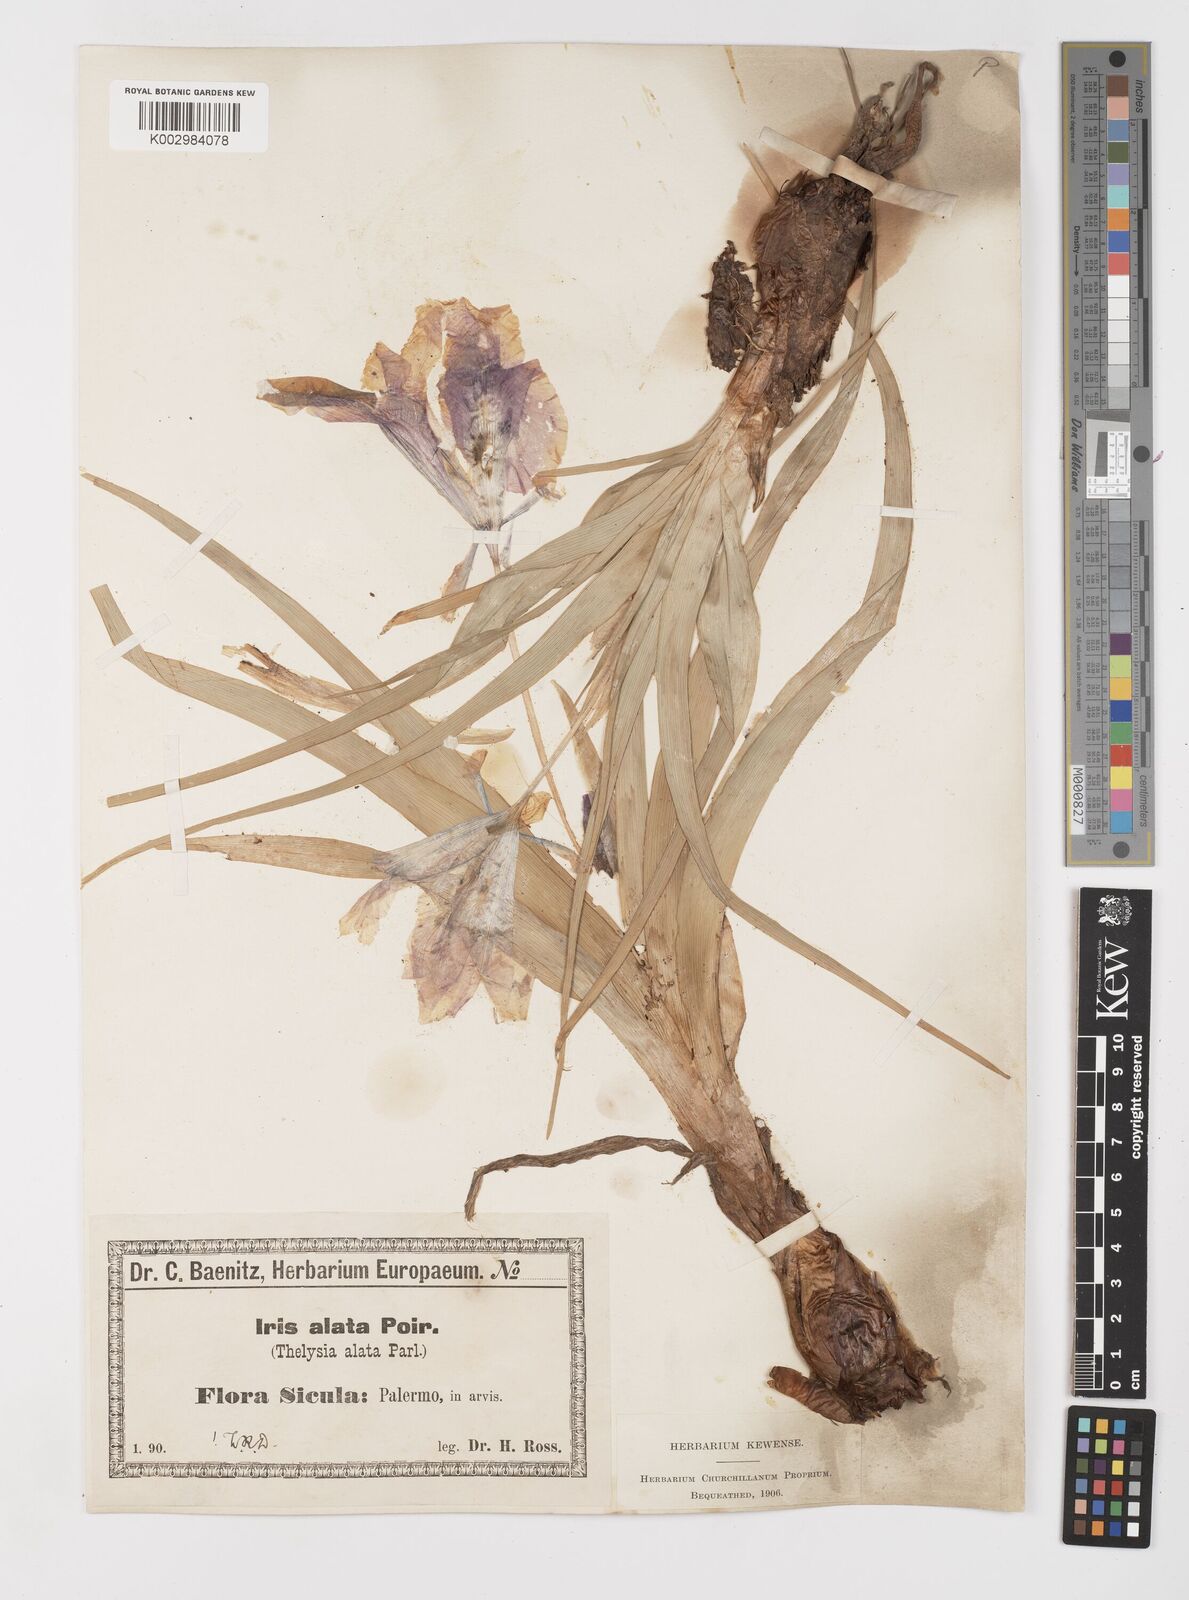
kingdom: Plantae
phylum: Tracheophyta
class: Liliopsida
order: Asparagales
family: Iridaceae
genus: Iris
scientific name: Iris planifolia
